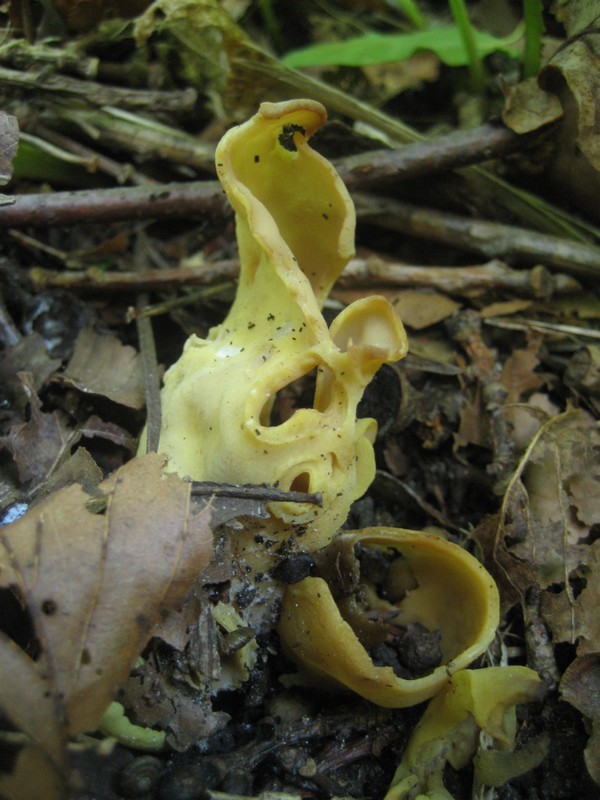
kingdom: Fungi
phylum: Ascomycota
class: Pezizomycetes
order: Pezizales
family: Otideaceae
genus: Otidea
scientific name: Otidea cantharella
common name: citrongul ørebæger
